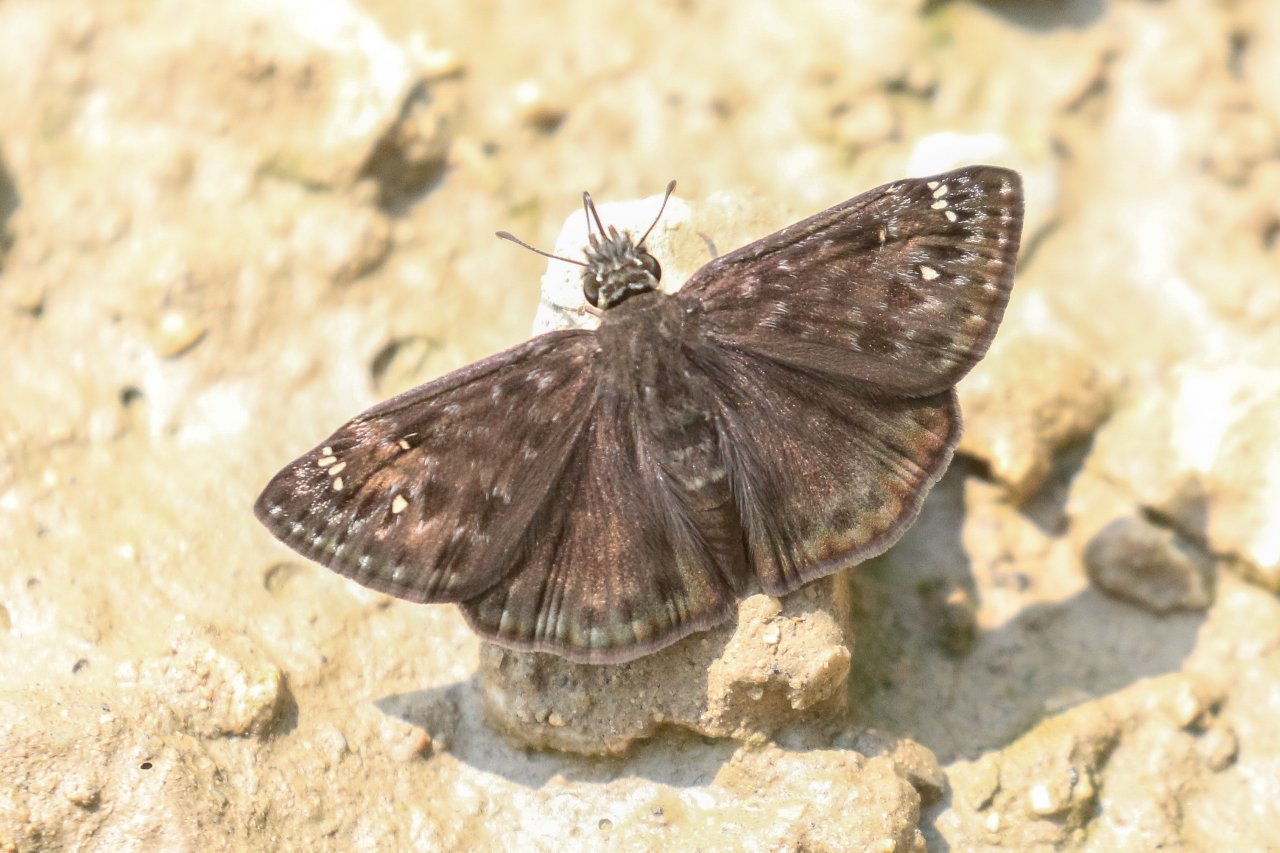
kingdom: Animalia
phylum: Arthropoda
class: Insecta
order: Lepidoptera
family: Hesperiidae
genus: Gesta
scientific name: Gesta
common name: Horace's Duskywing
